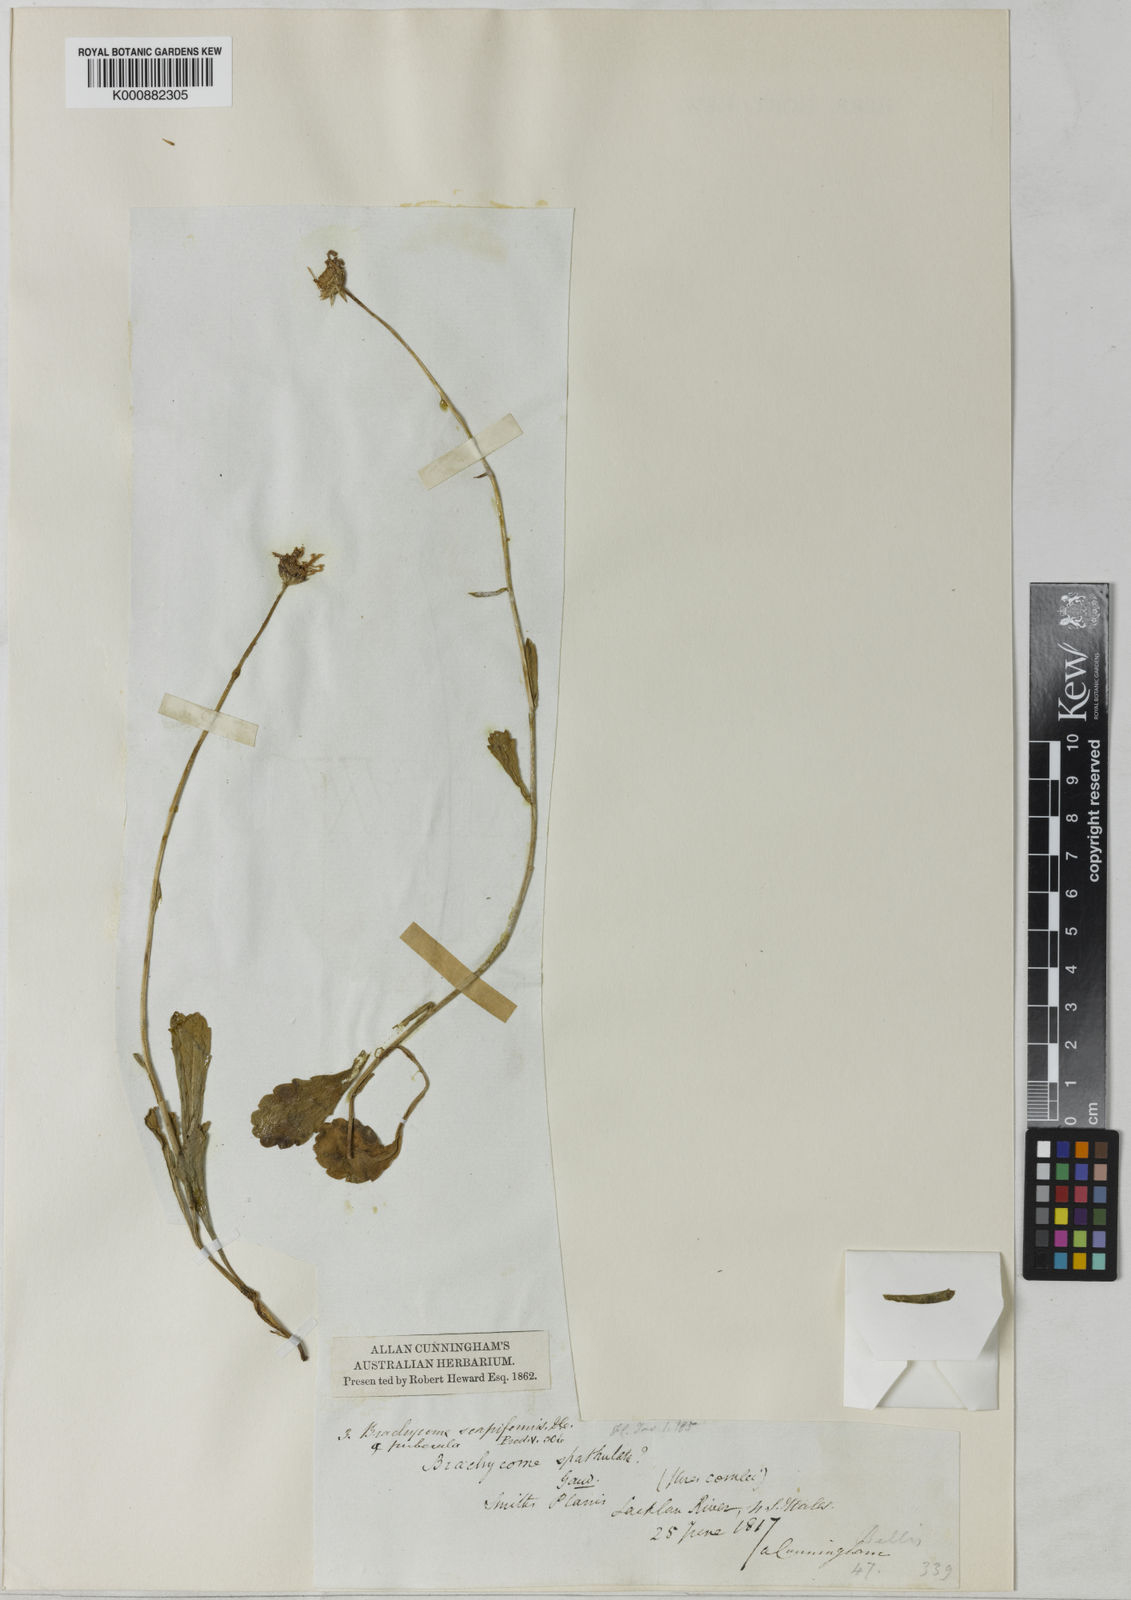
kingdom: Plantae
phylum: Tracheophyta
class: Magnoliopsida
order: Asterales
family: Asteraceae
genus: Brachyscome
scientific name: Brachyscome aculeata
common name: Hill daisy
